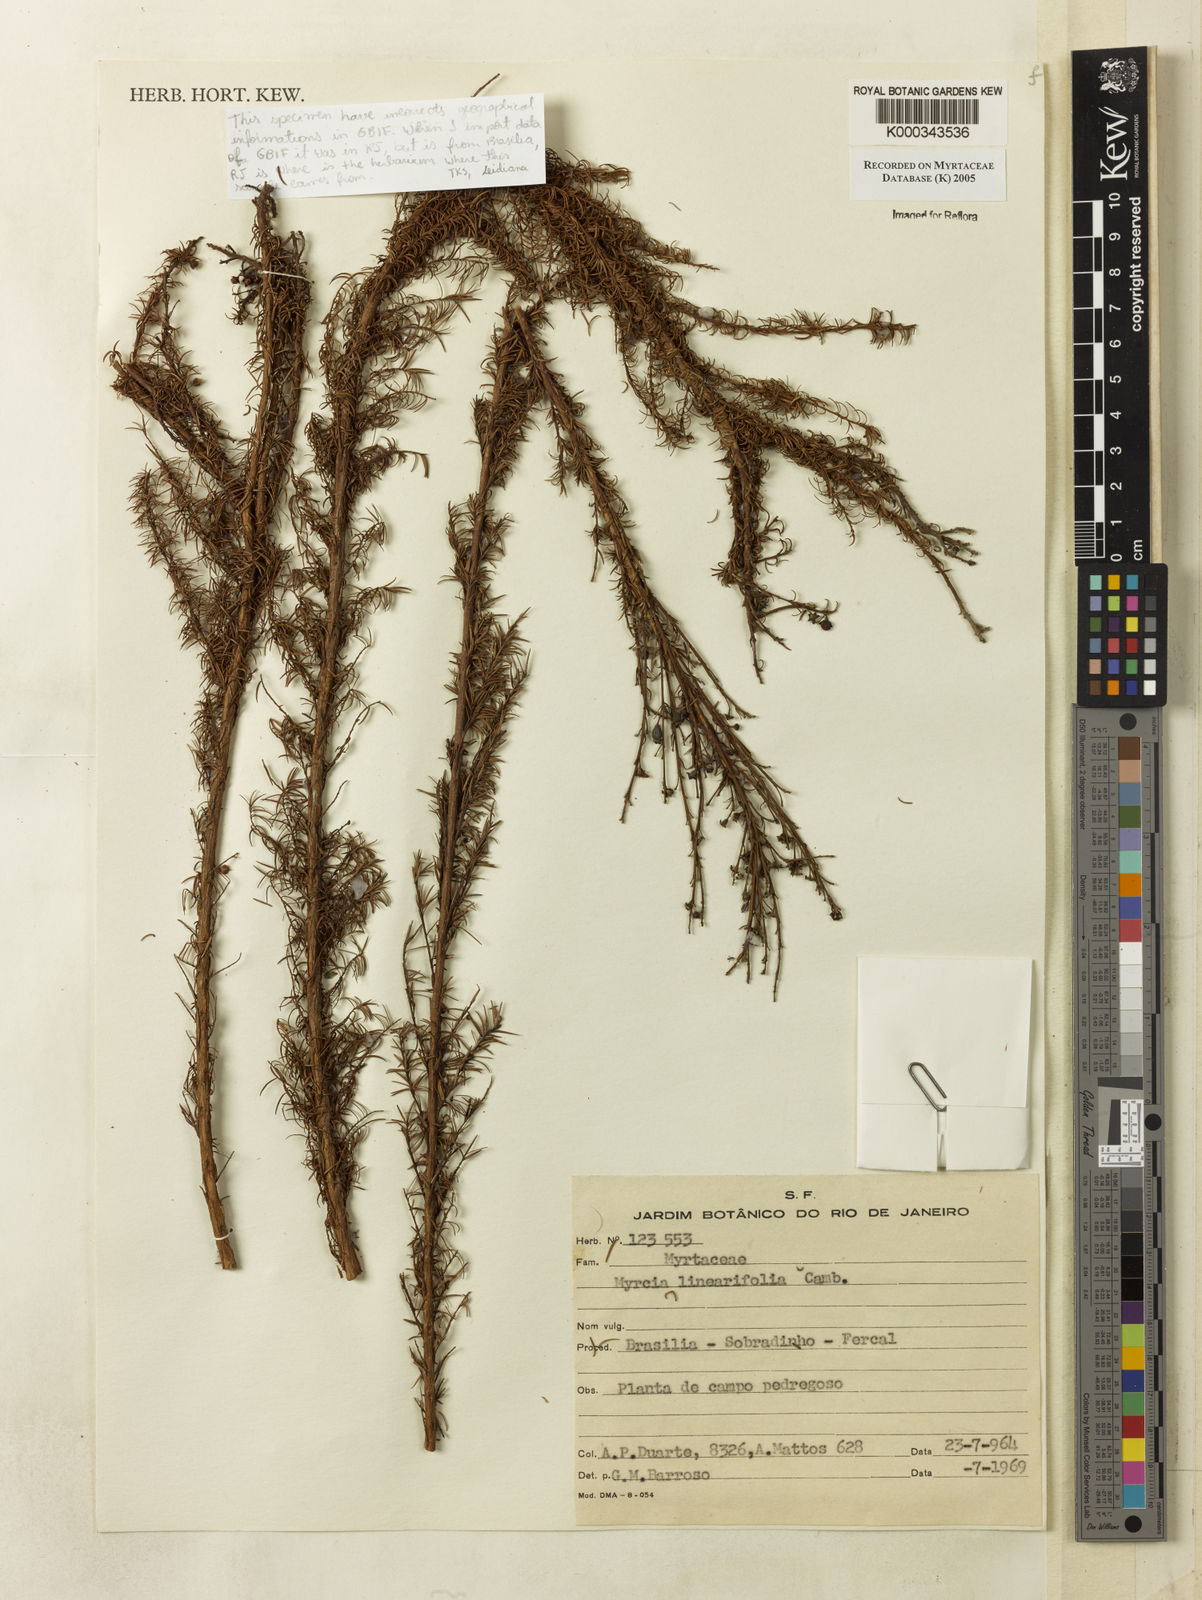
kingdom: Plantae
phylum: Tracheophyta
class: Magnoliopsida
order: Myrtales
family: Myrtaceae
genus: Myrcia
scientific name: Myrcia linearifolia
